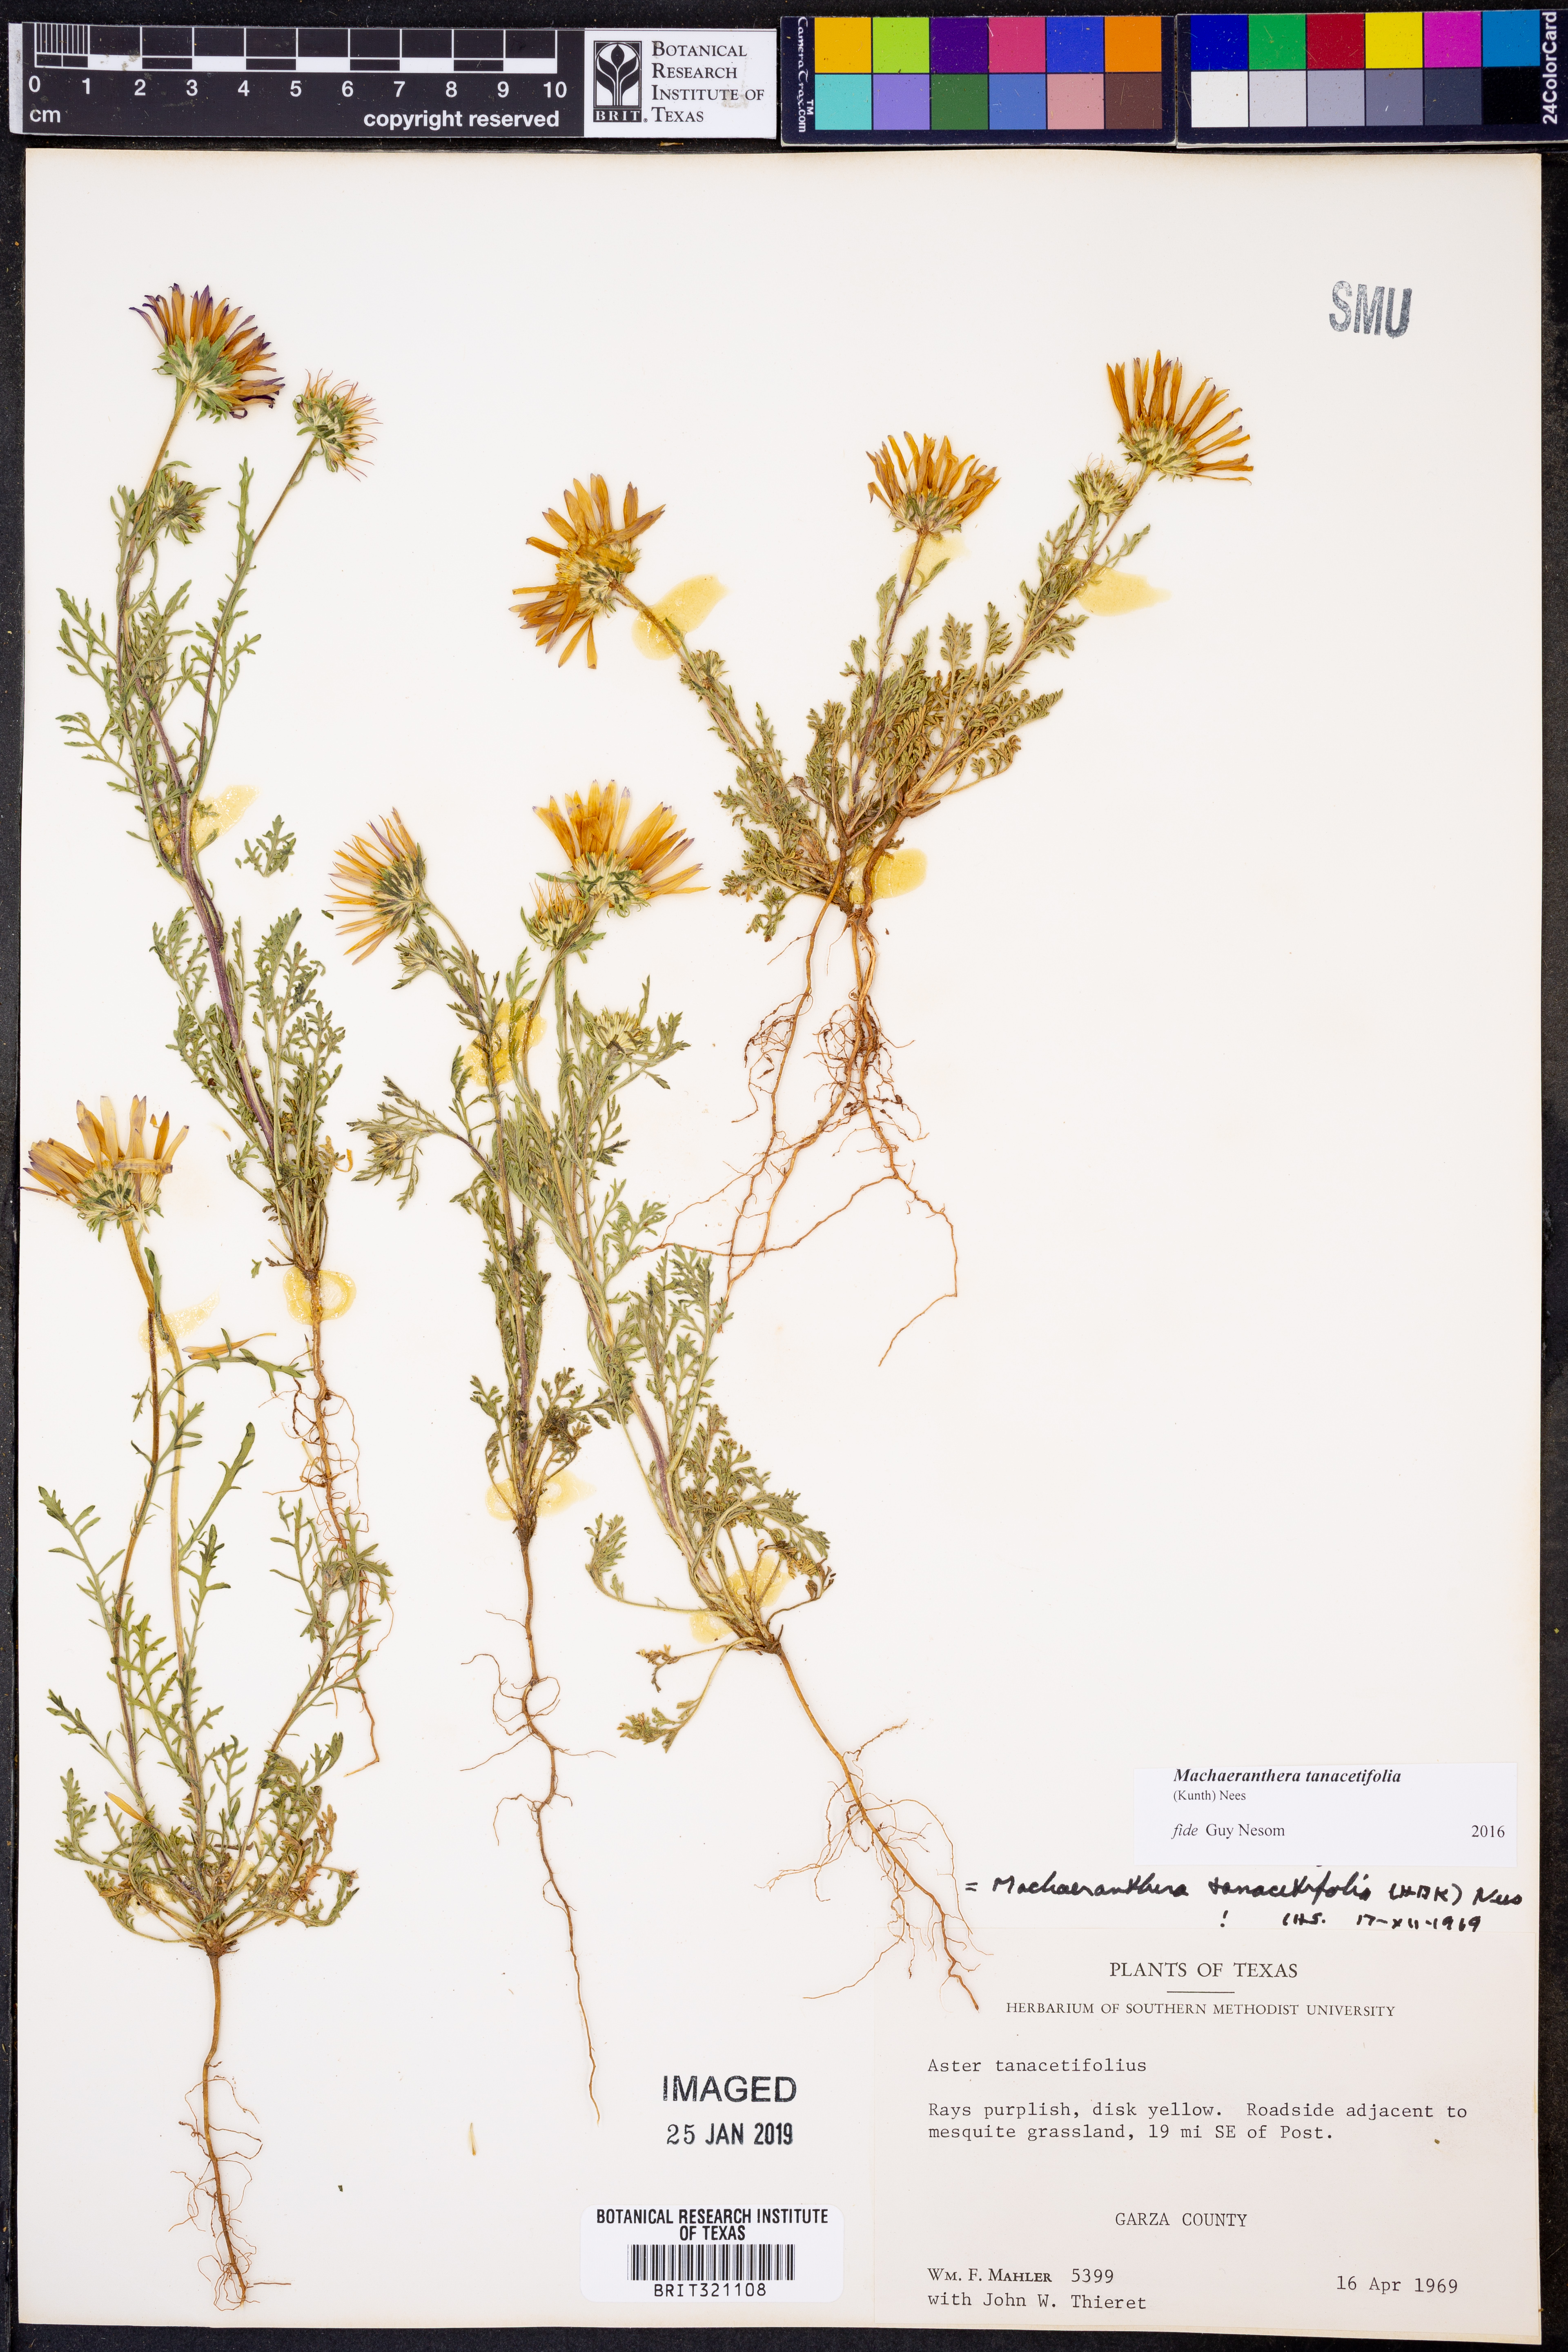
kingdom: Plantae
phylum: Tracheophyta
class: Magnoliopsida
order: Asterales
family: Asteraceae
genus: Machaeranthera
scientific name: Machaeranthera tanacetifolia
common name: Tansy-aster
